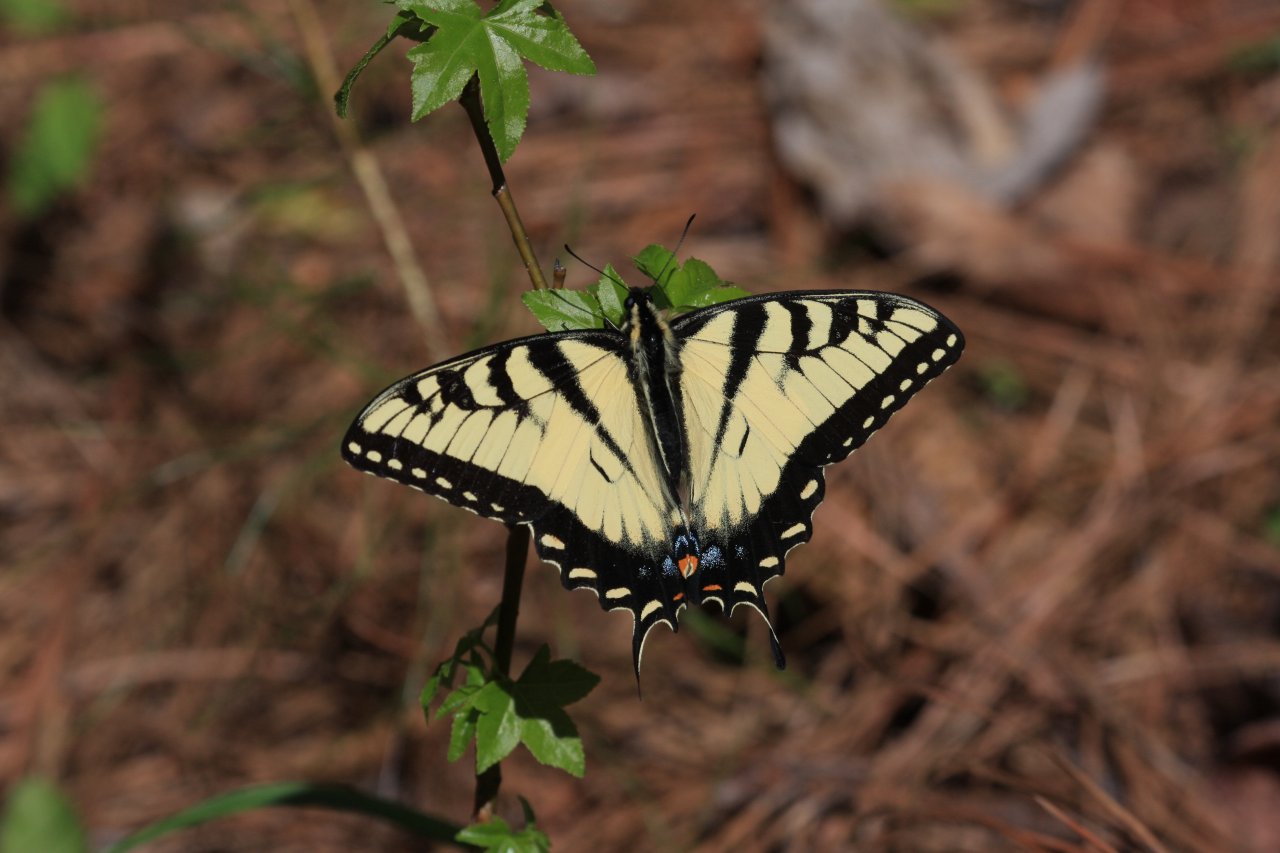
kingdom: Animalia
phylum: Arthropoda
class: Insecta
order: Lepidoptera
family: Papilionidae
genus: Pterourus
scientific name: Pterourus glaucus
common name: Eastern Tiger Swallowtail
